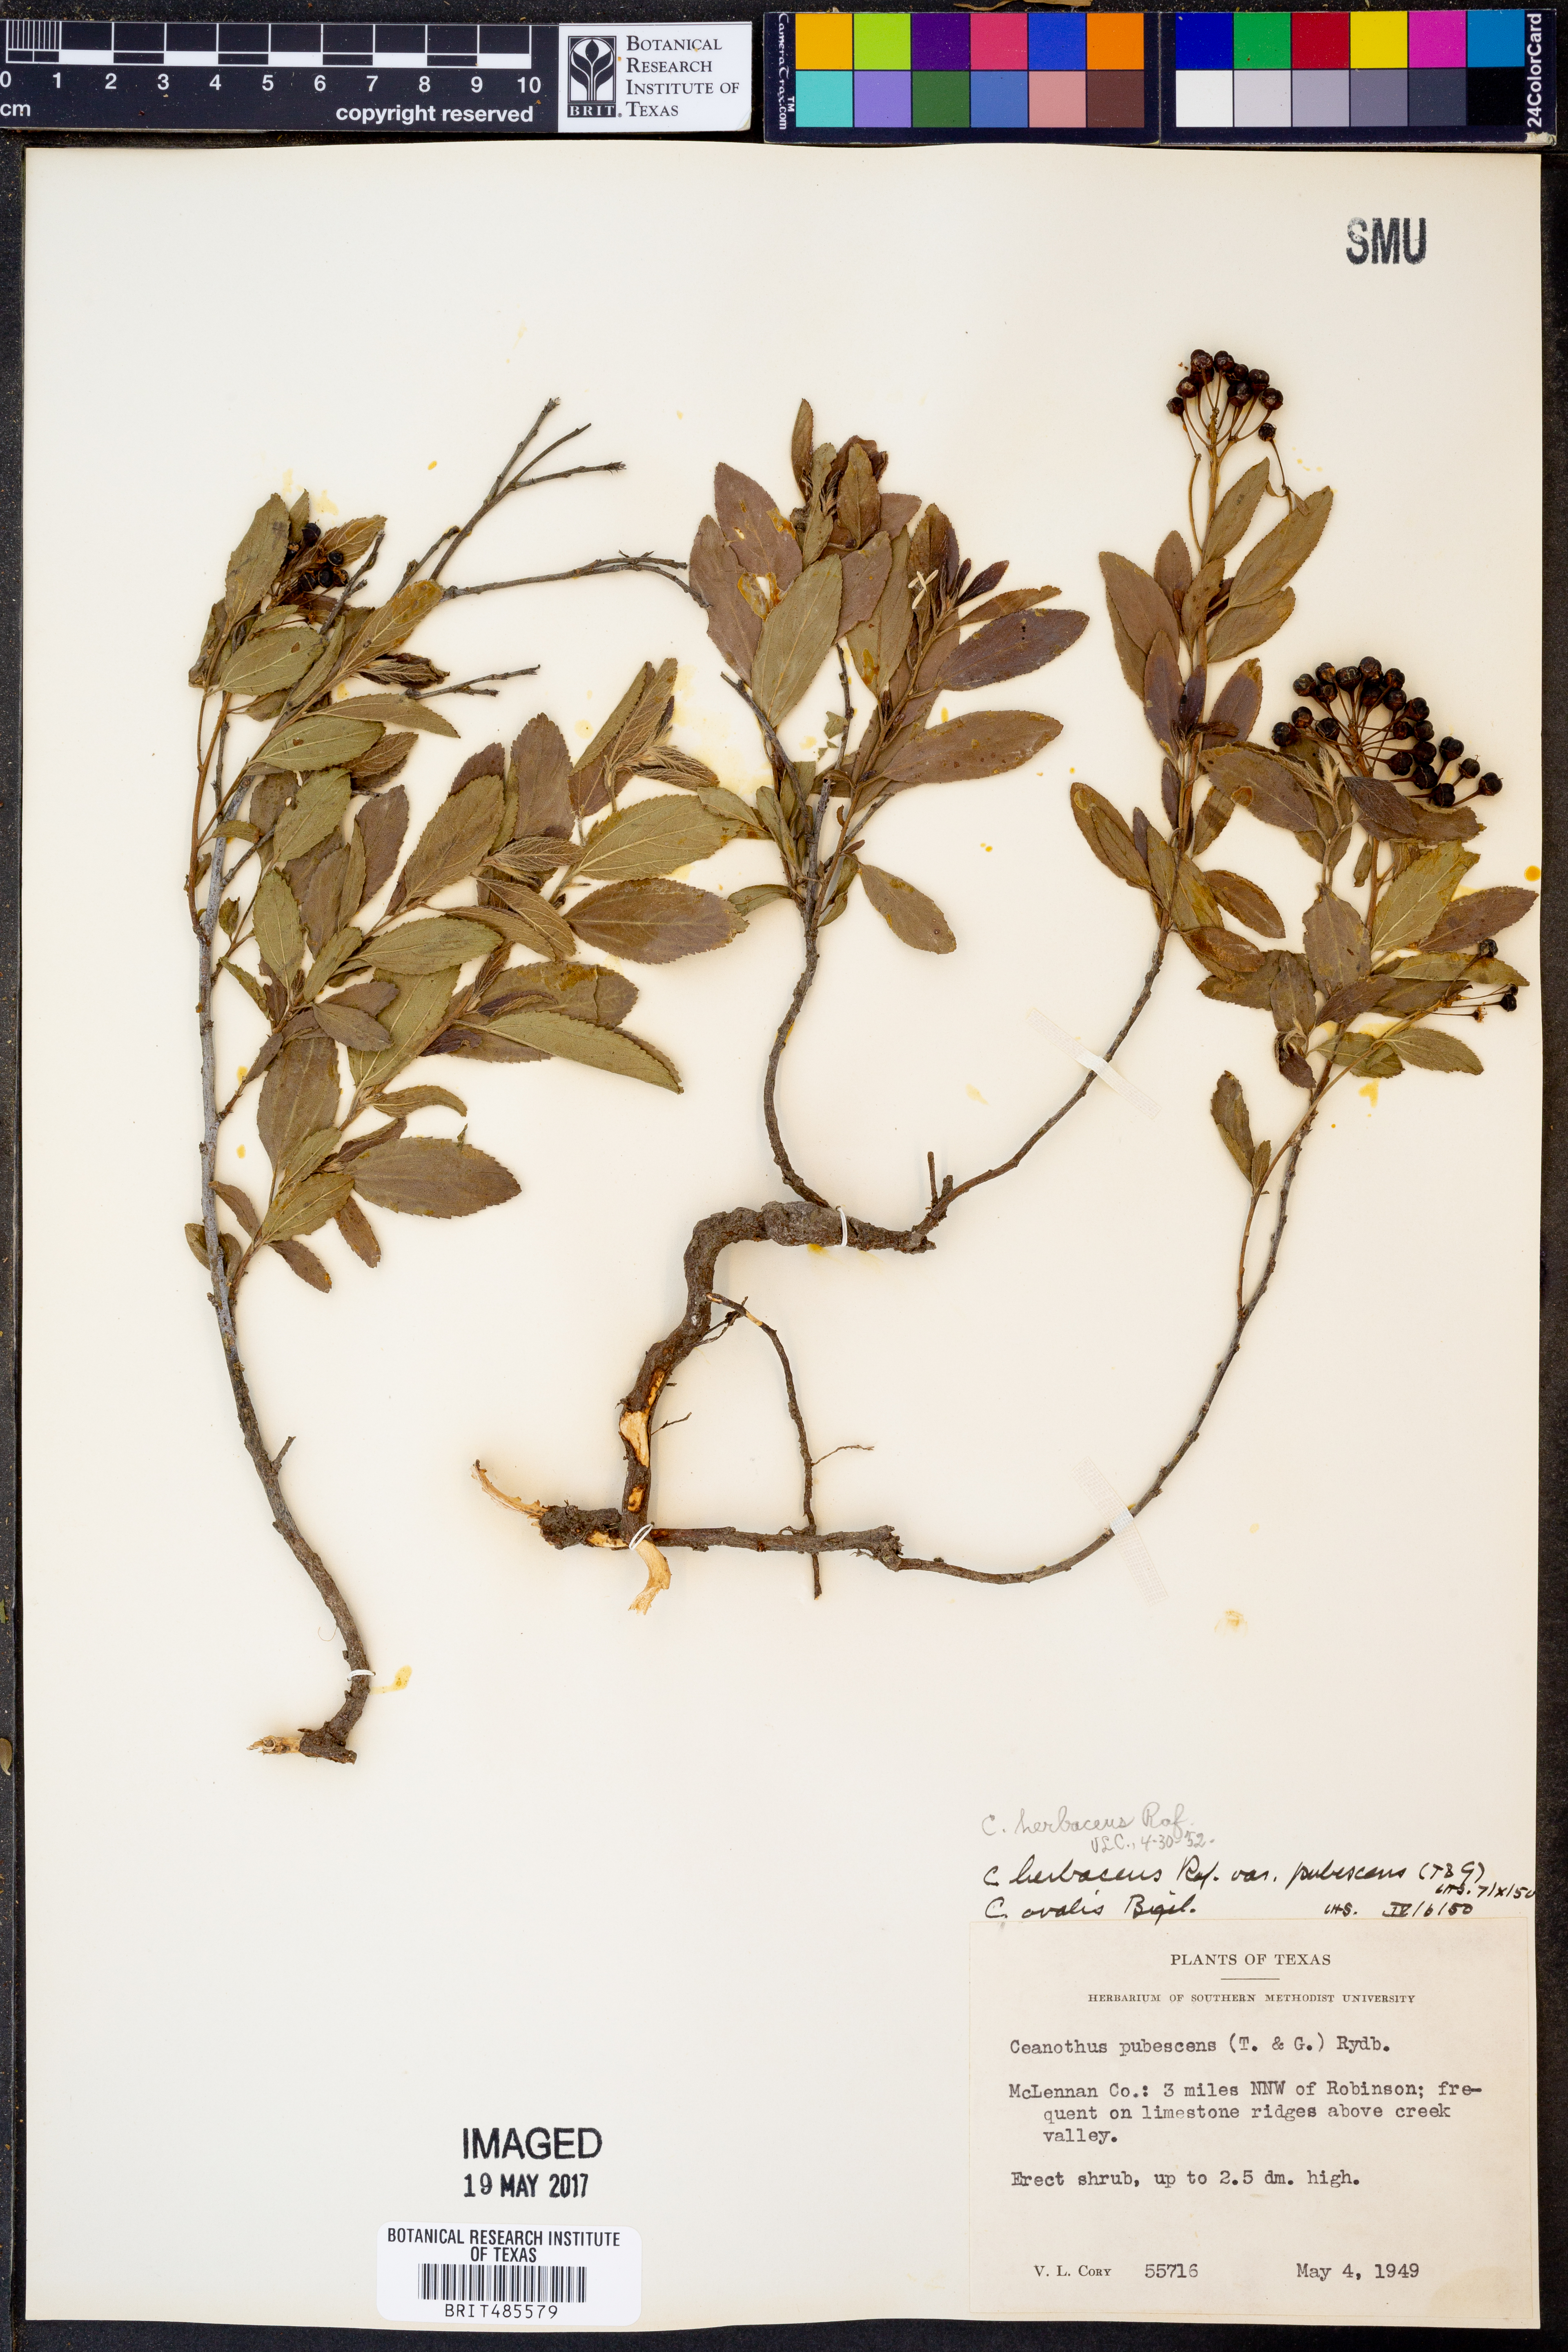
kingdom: Plantae
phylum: Tracheophyta
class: Magnoliopsida
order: Rosales
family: Rhamnaceae
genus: Ceanothus
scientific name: Ceanothus herbaceus
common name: Inland ceanothus
